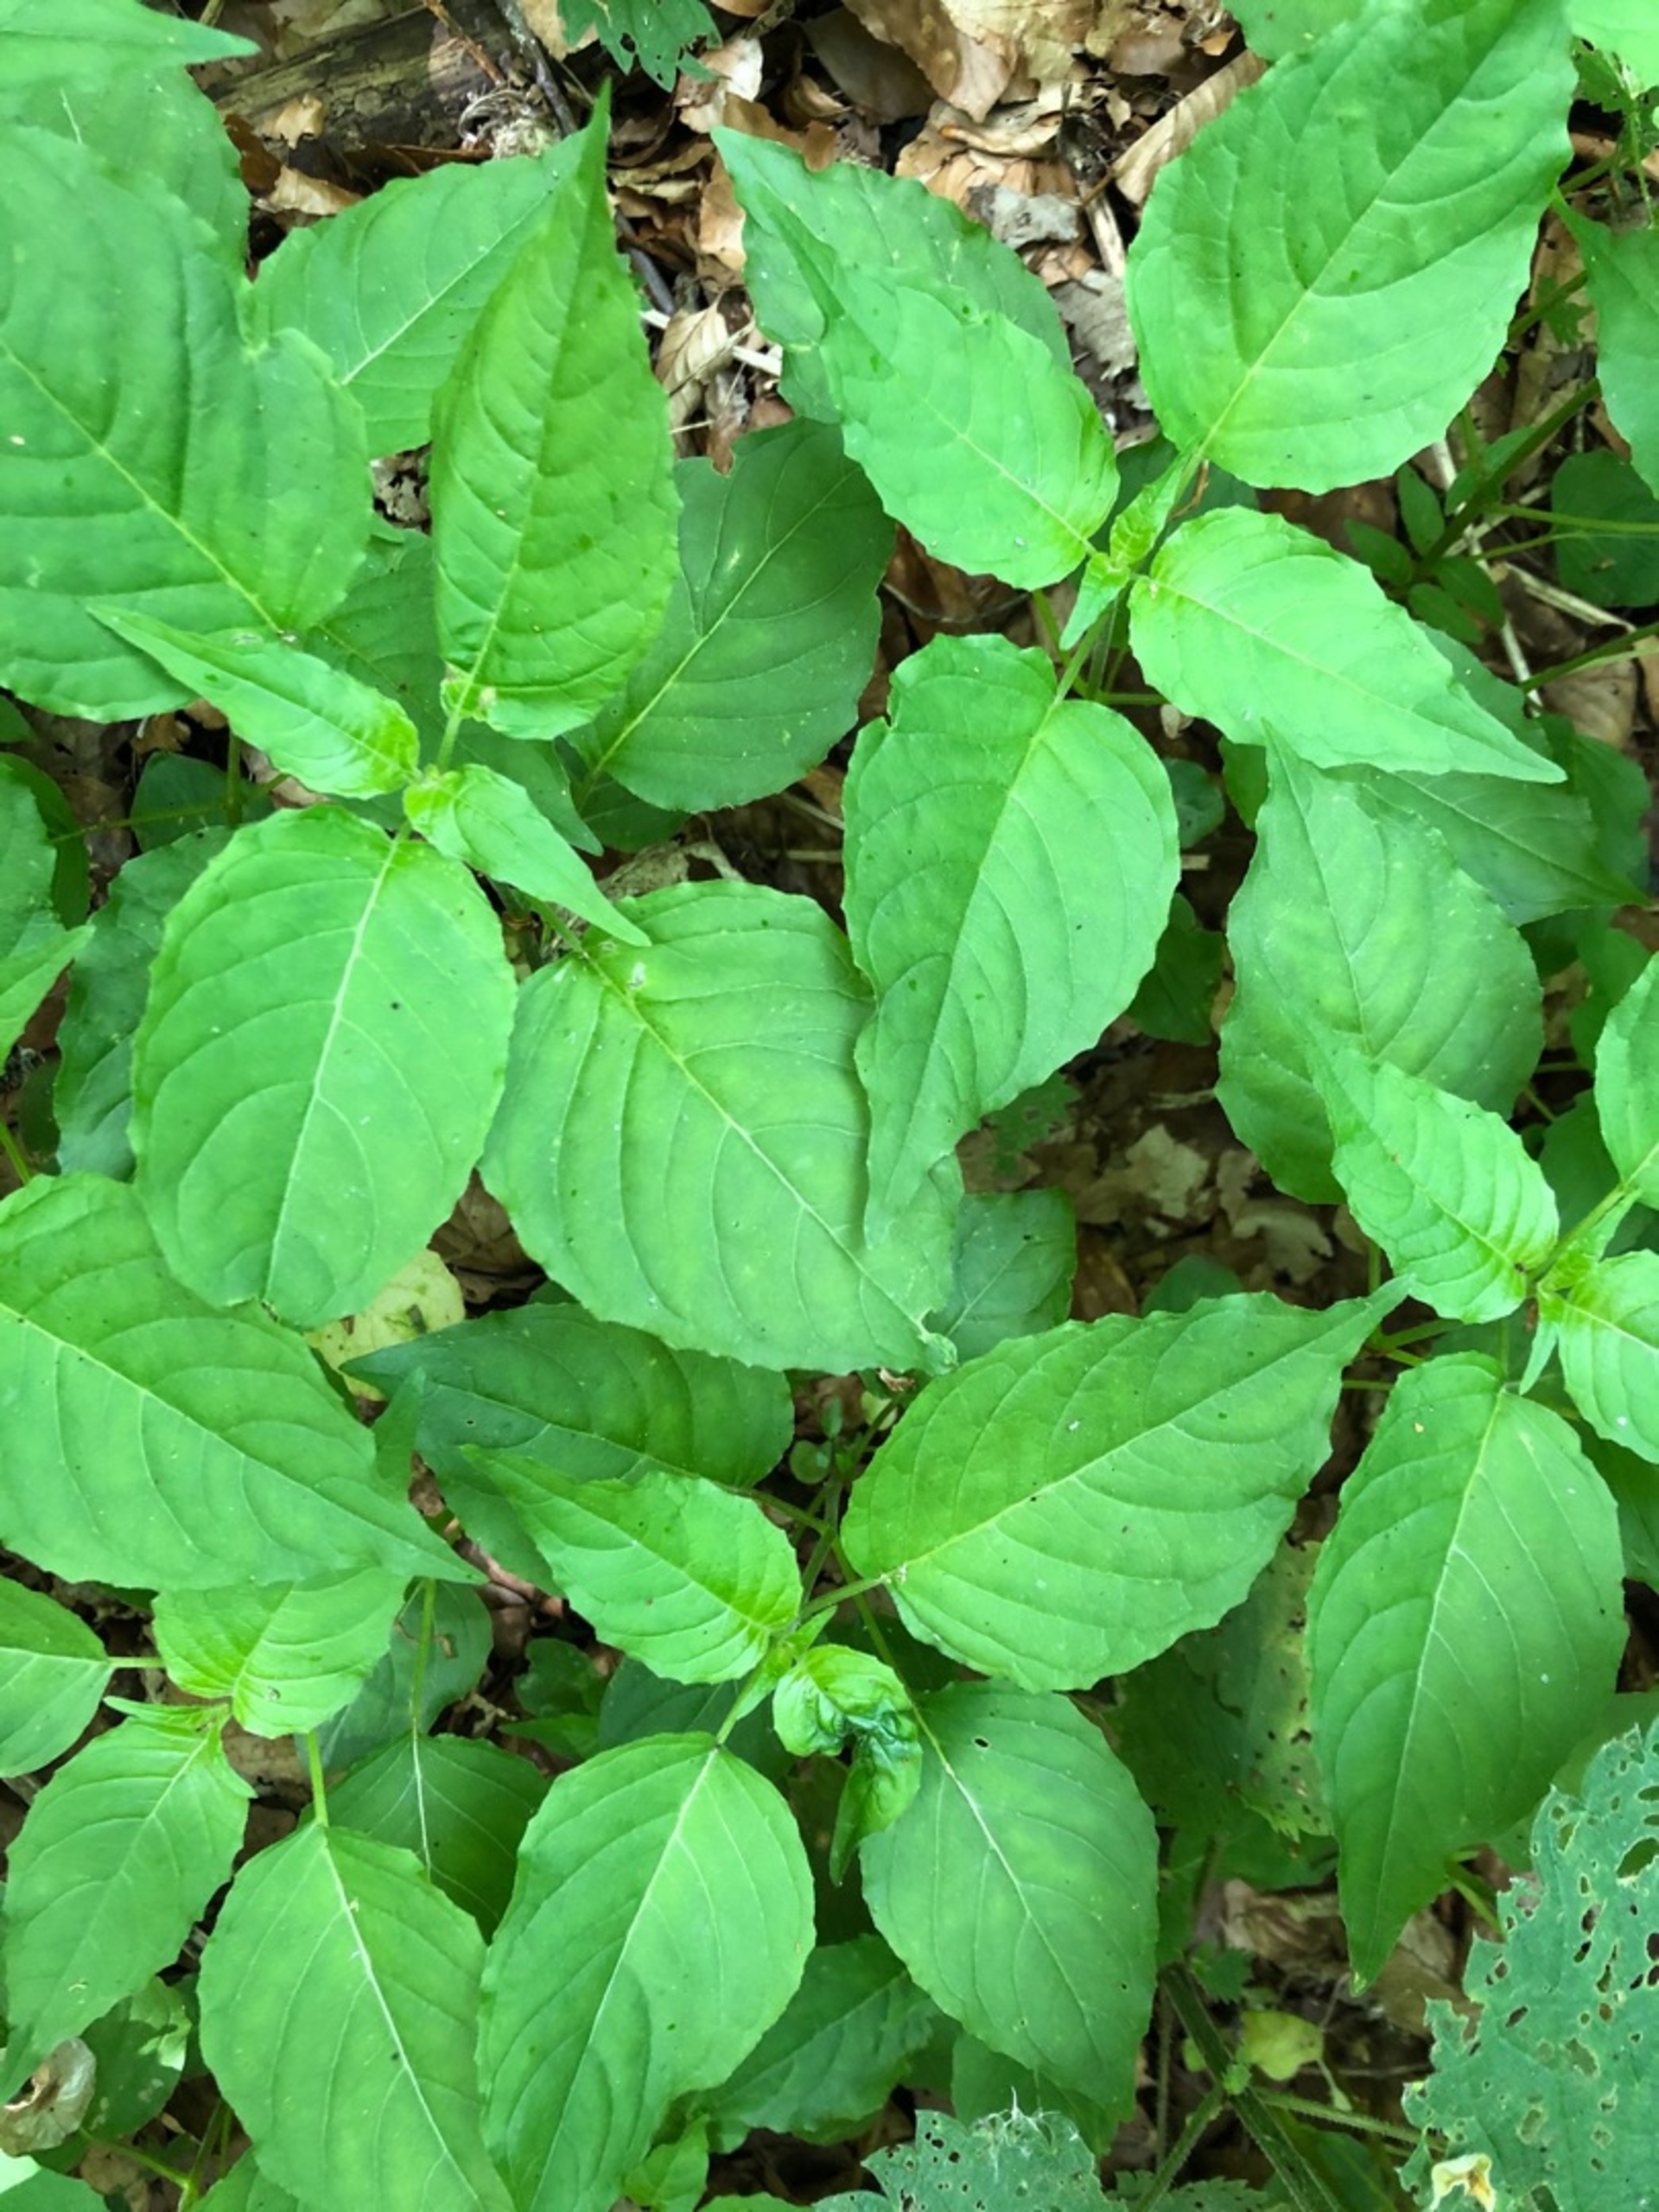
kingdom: Plantae
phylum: Tracheophyta
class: Magnoliopsida
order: Myrtales
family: Onagraceae
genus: Circaea
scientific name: Circaea lutetiana
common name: Dunet steffensurt
